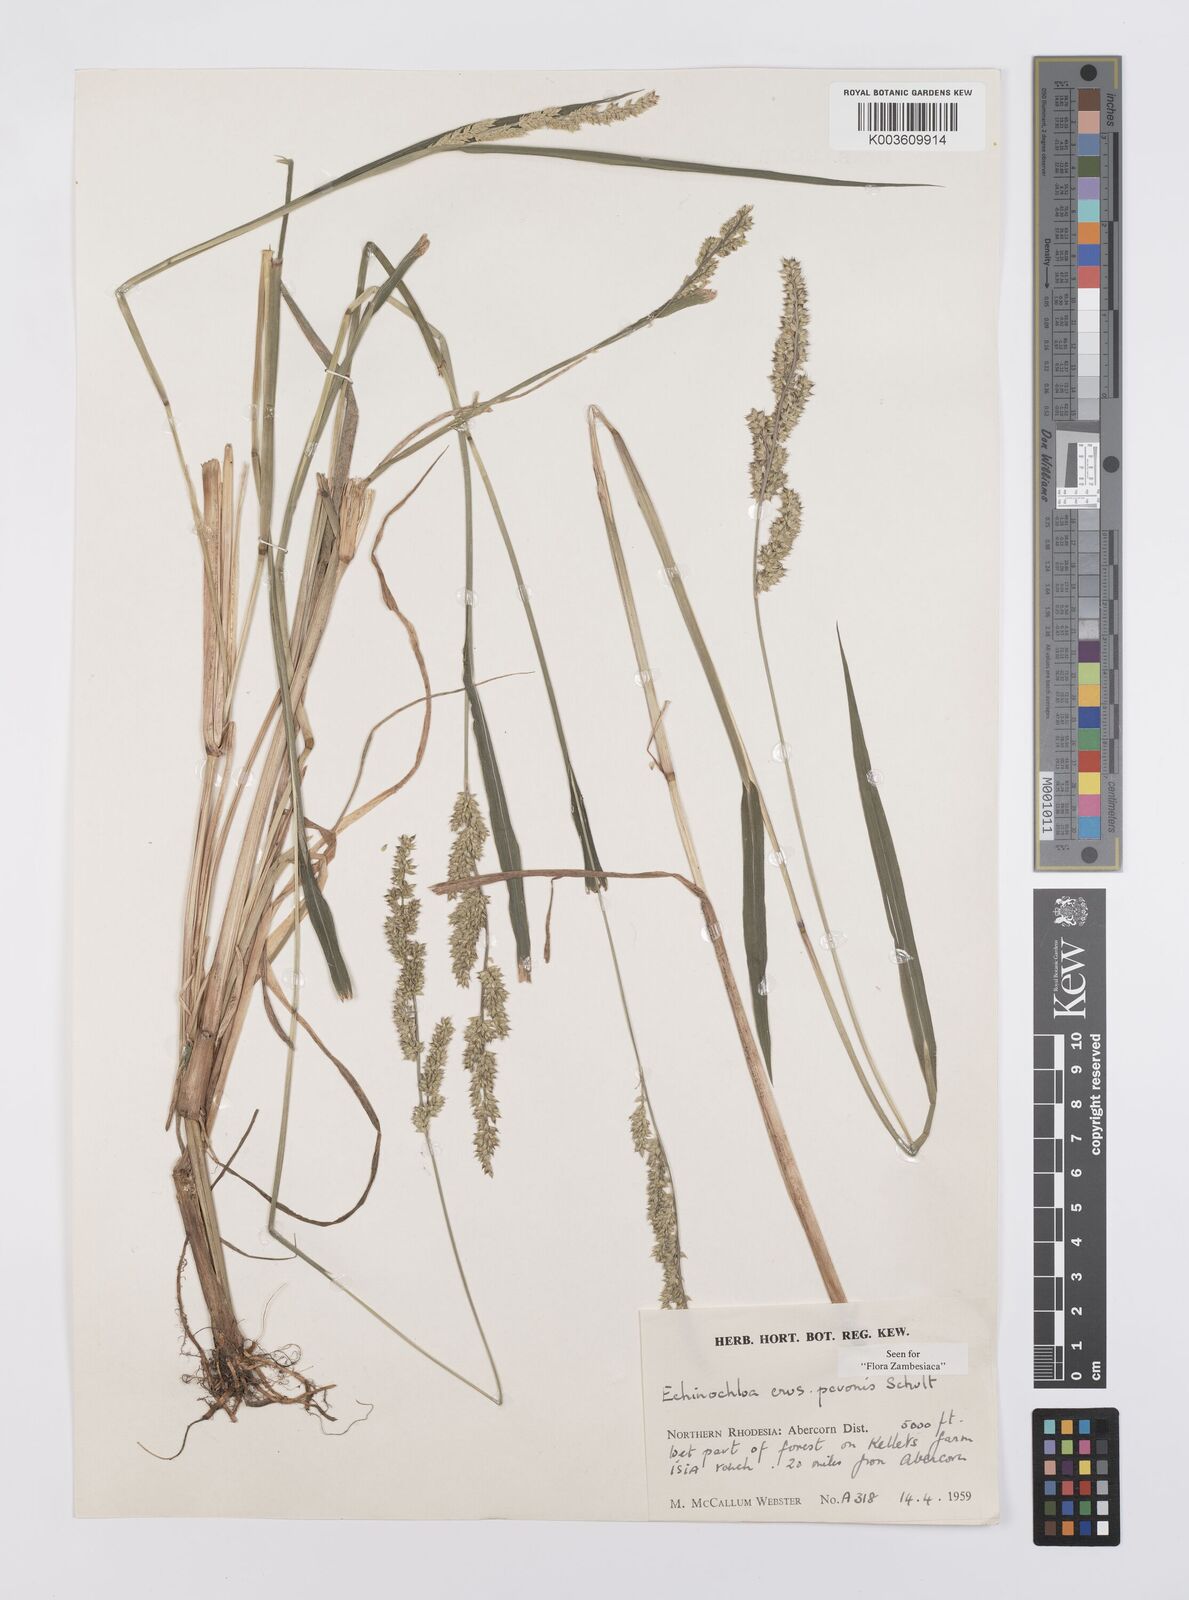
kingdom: Plantae
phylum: Tracheophyta
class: Liliopsida
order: Poales
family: Poaceae
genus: Echinochloa
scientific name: Echinochloa crus-pavonis
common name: Gulf cockspur grass
